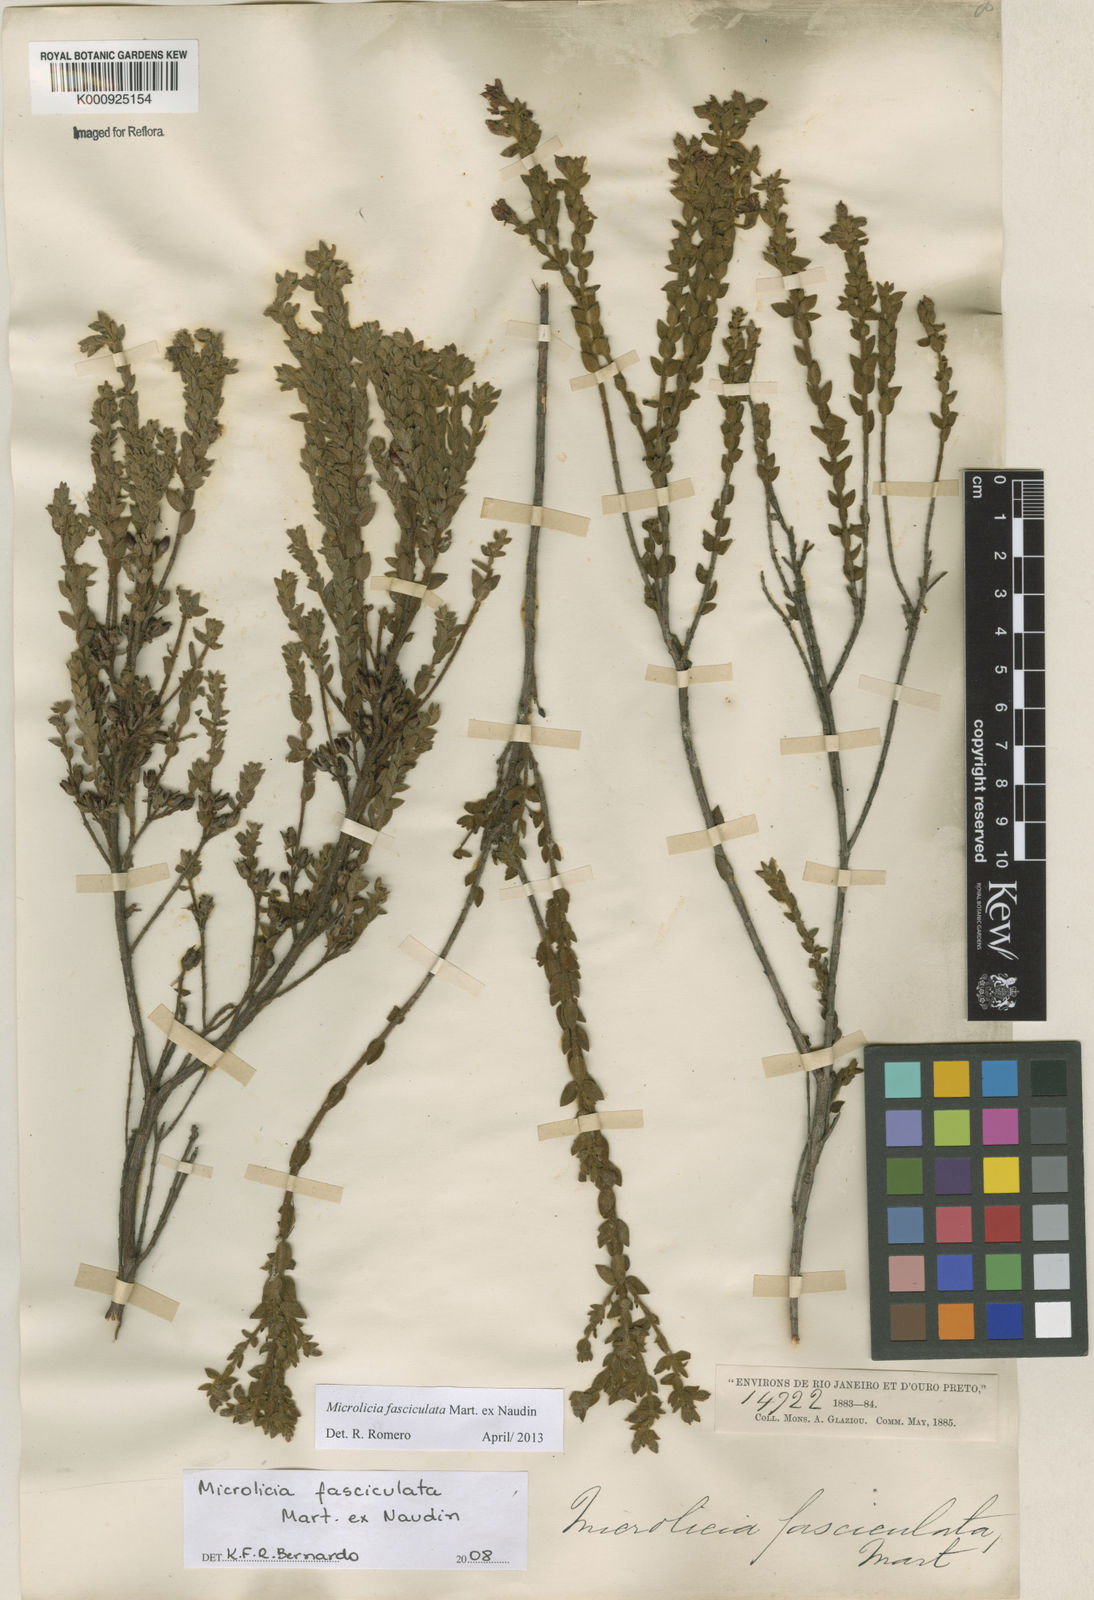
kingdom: Plantae
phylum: Tracheophyta
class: Magnoliopsida
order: Myrtales
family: Melastomataceae
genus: Microlicia
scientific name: Microlicia fasciculata
